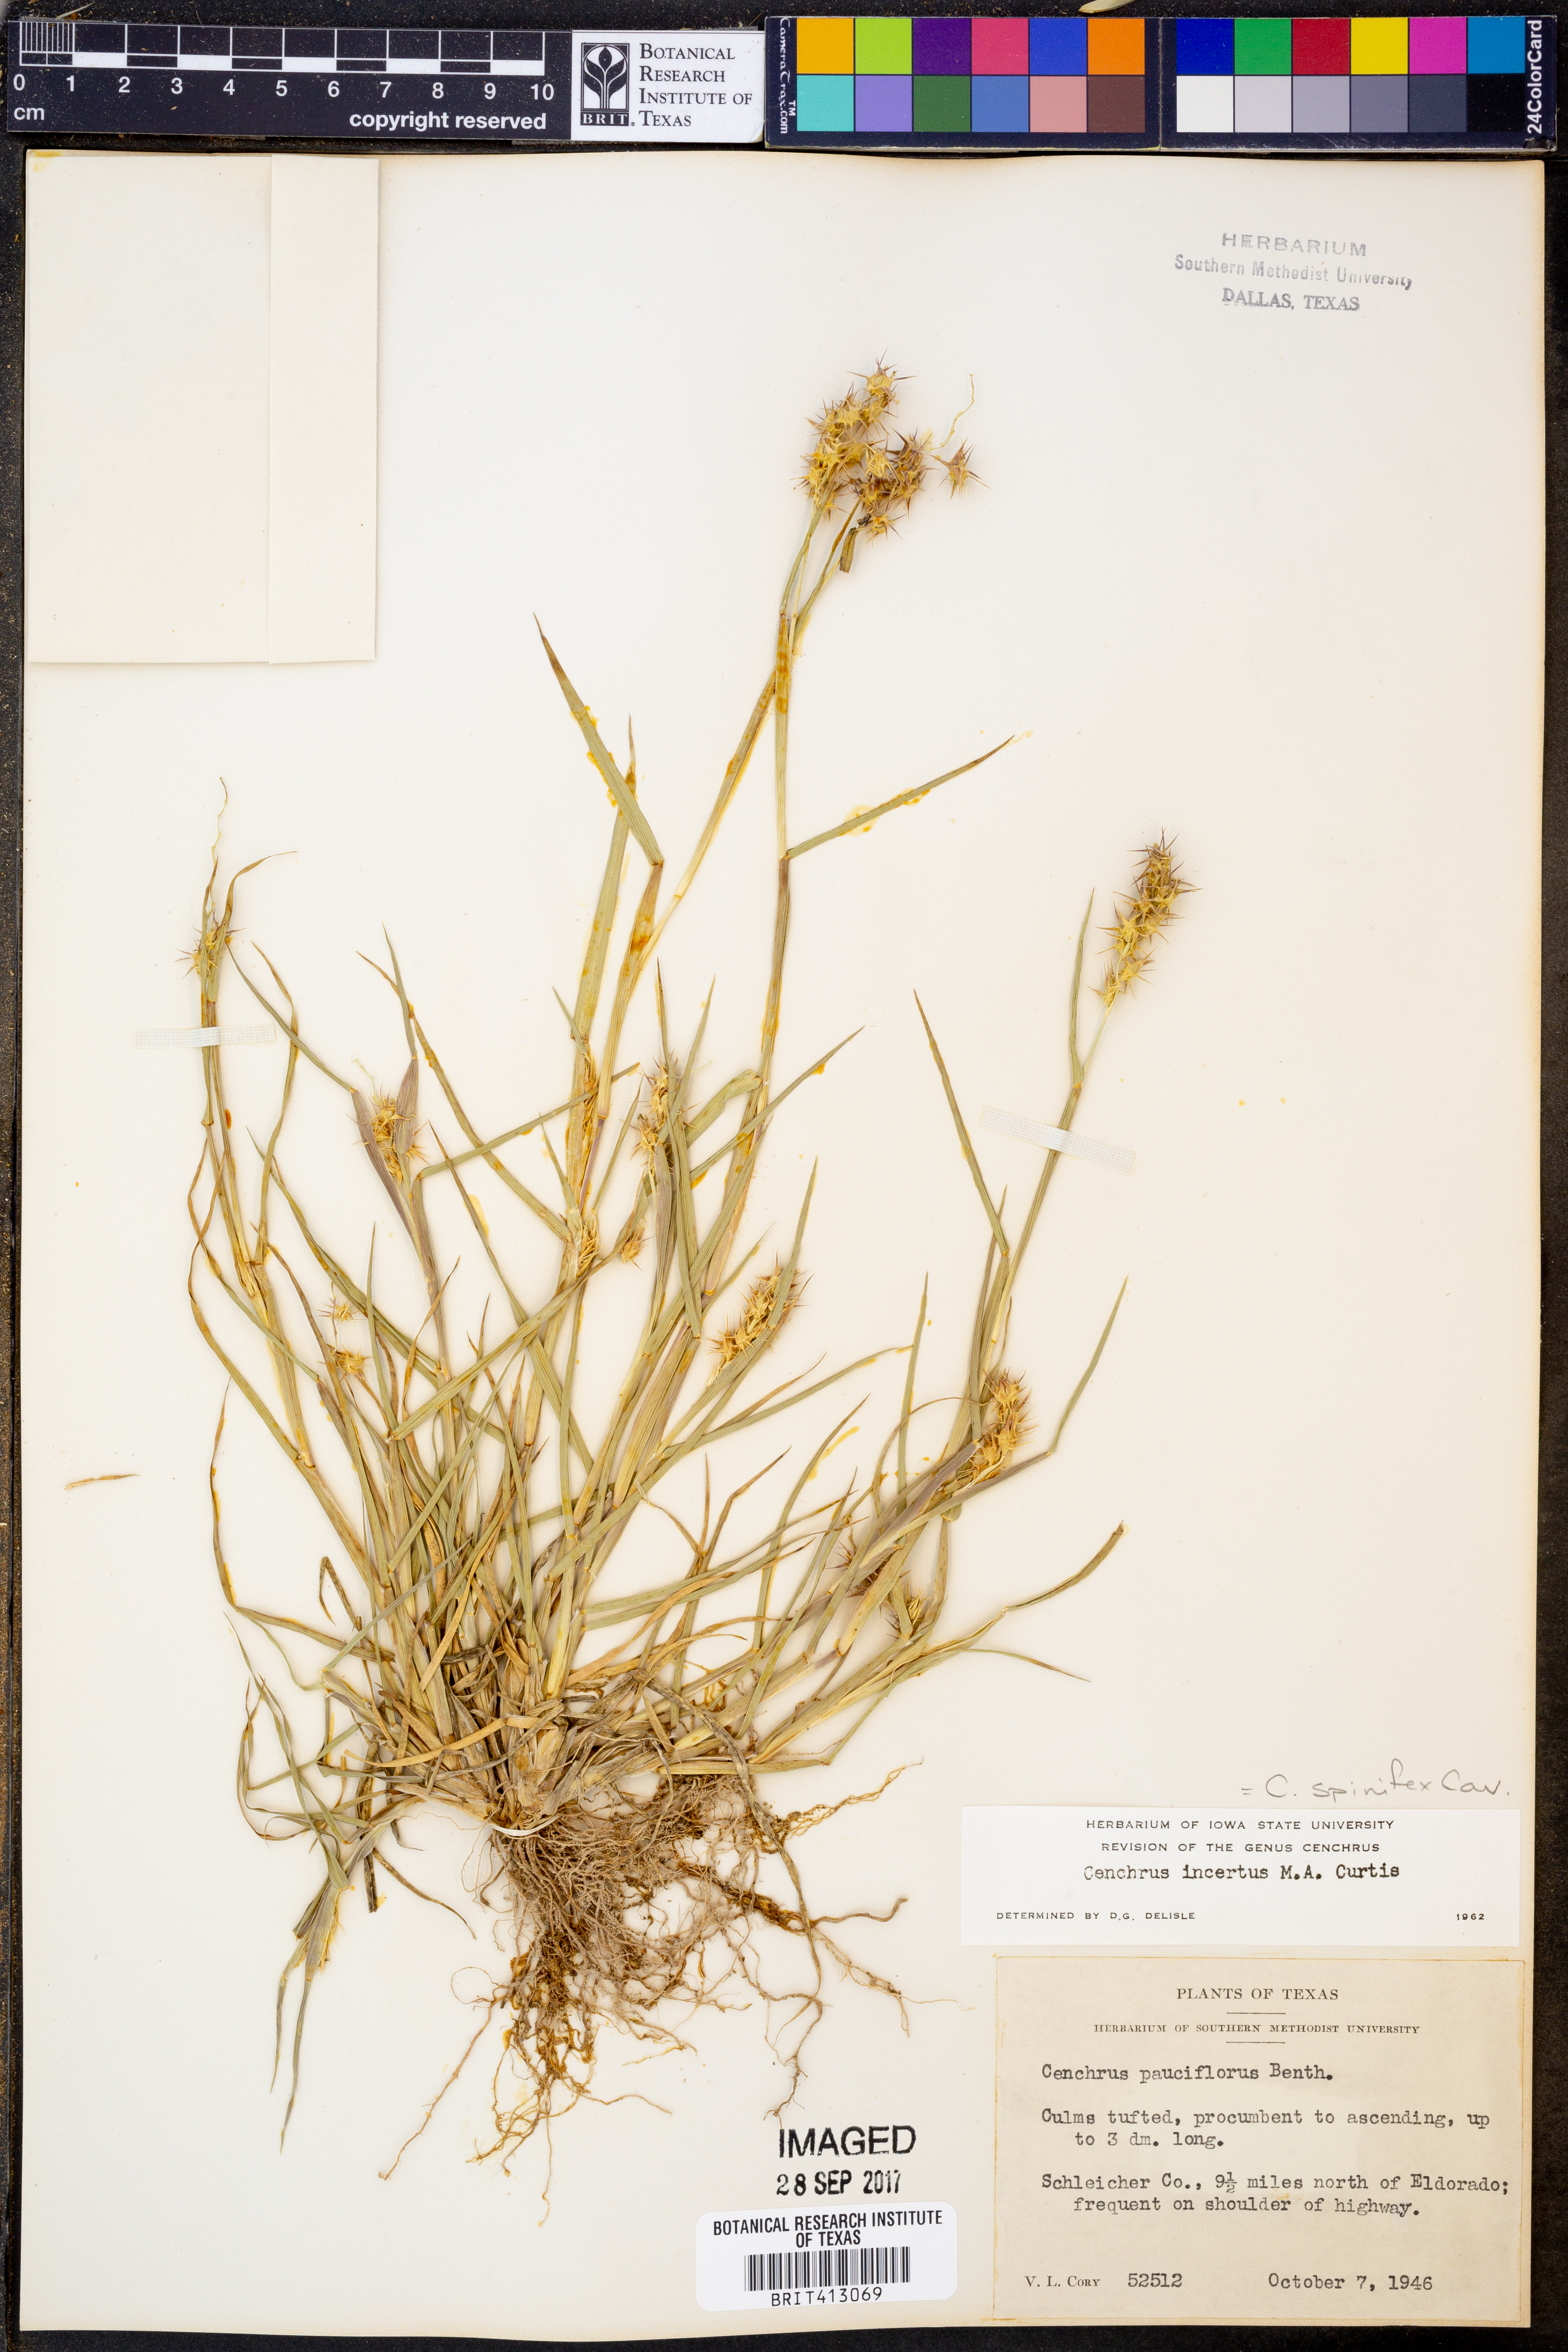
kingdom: Plantae
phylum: Tracheophyta
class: Liliopsida
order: Poales
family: Poaceae
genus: Cenchrus
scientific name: Cenchrus spinifex
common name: Coast sandbur
